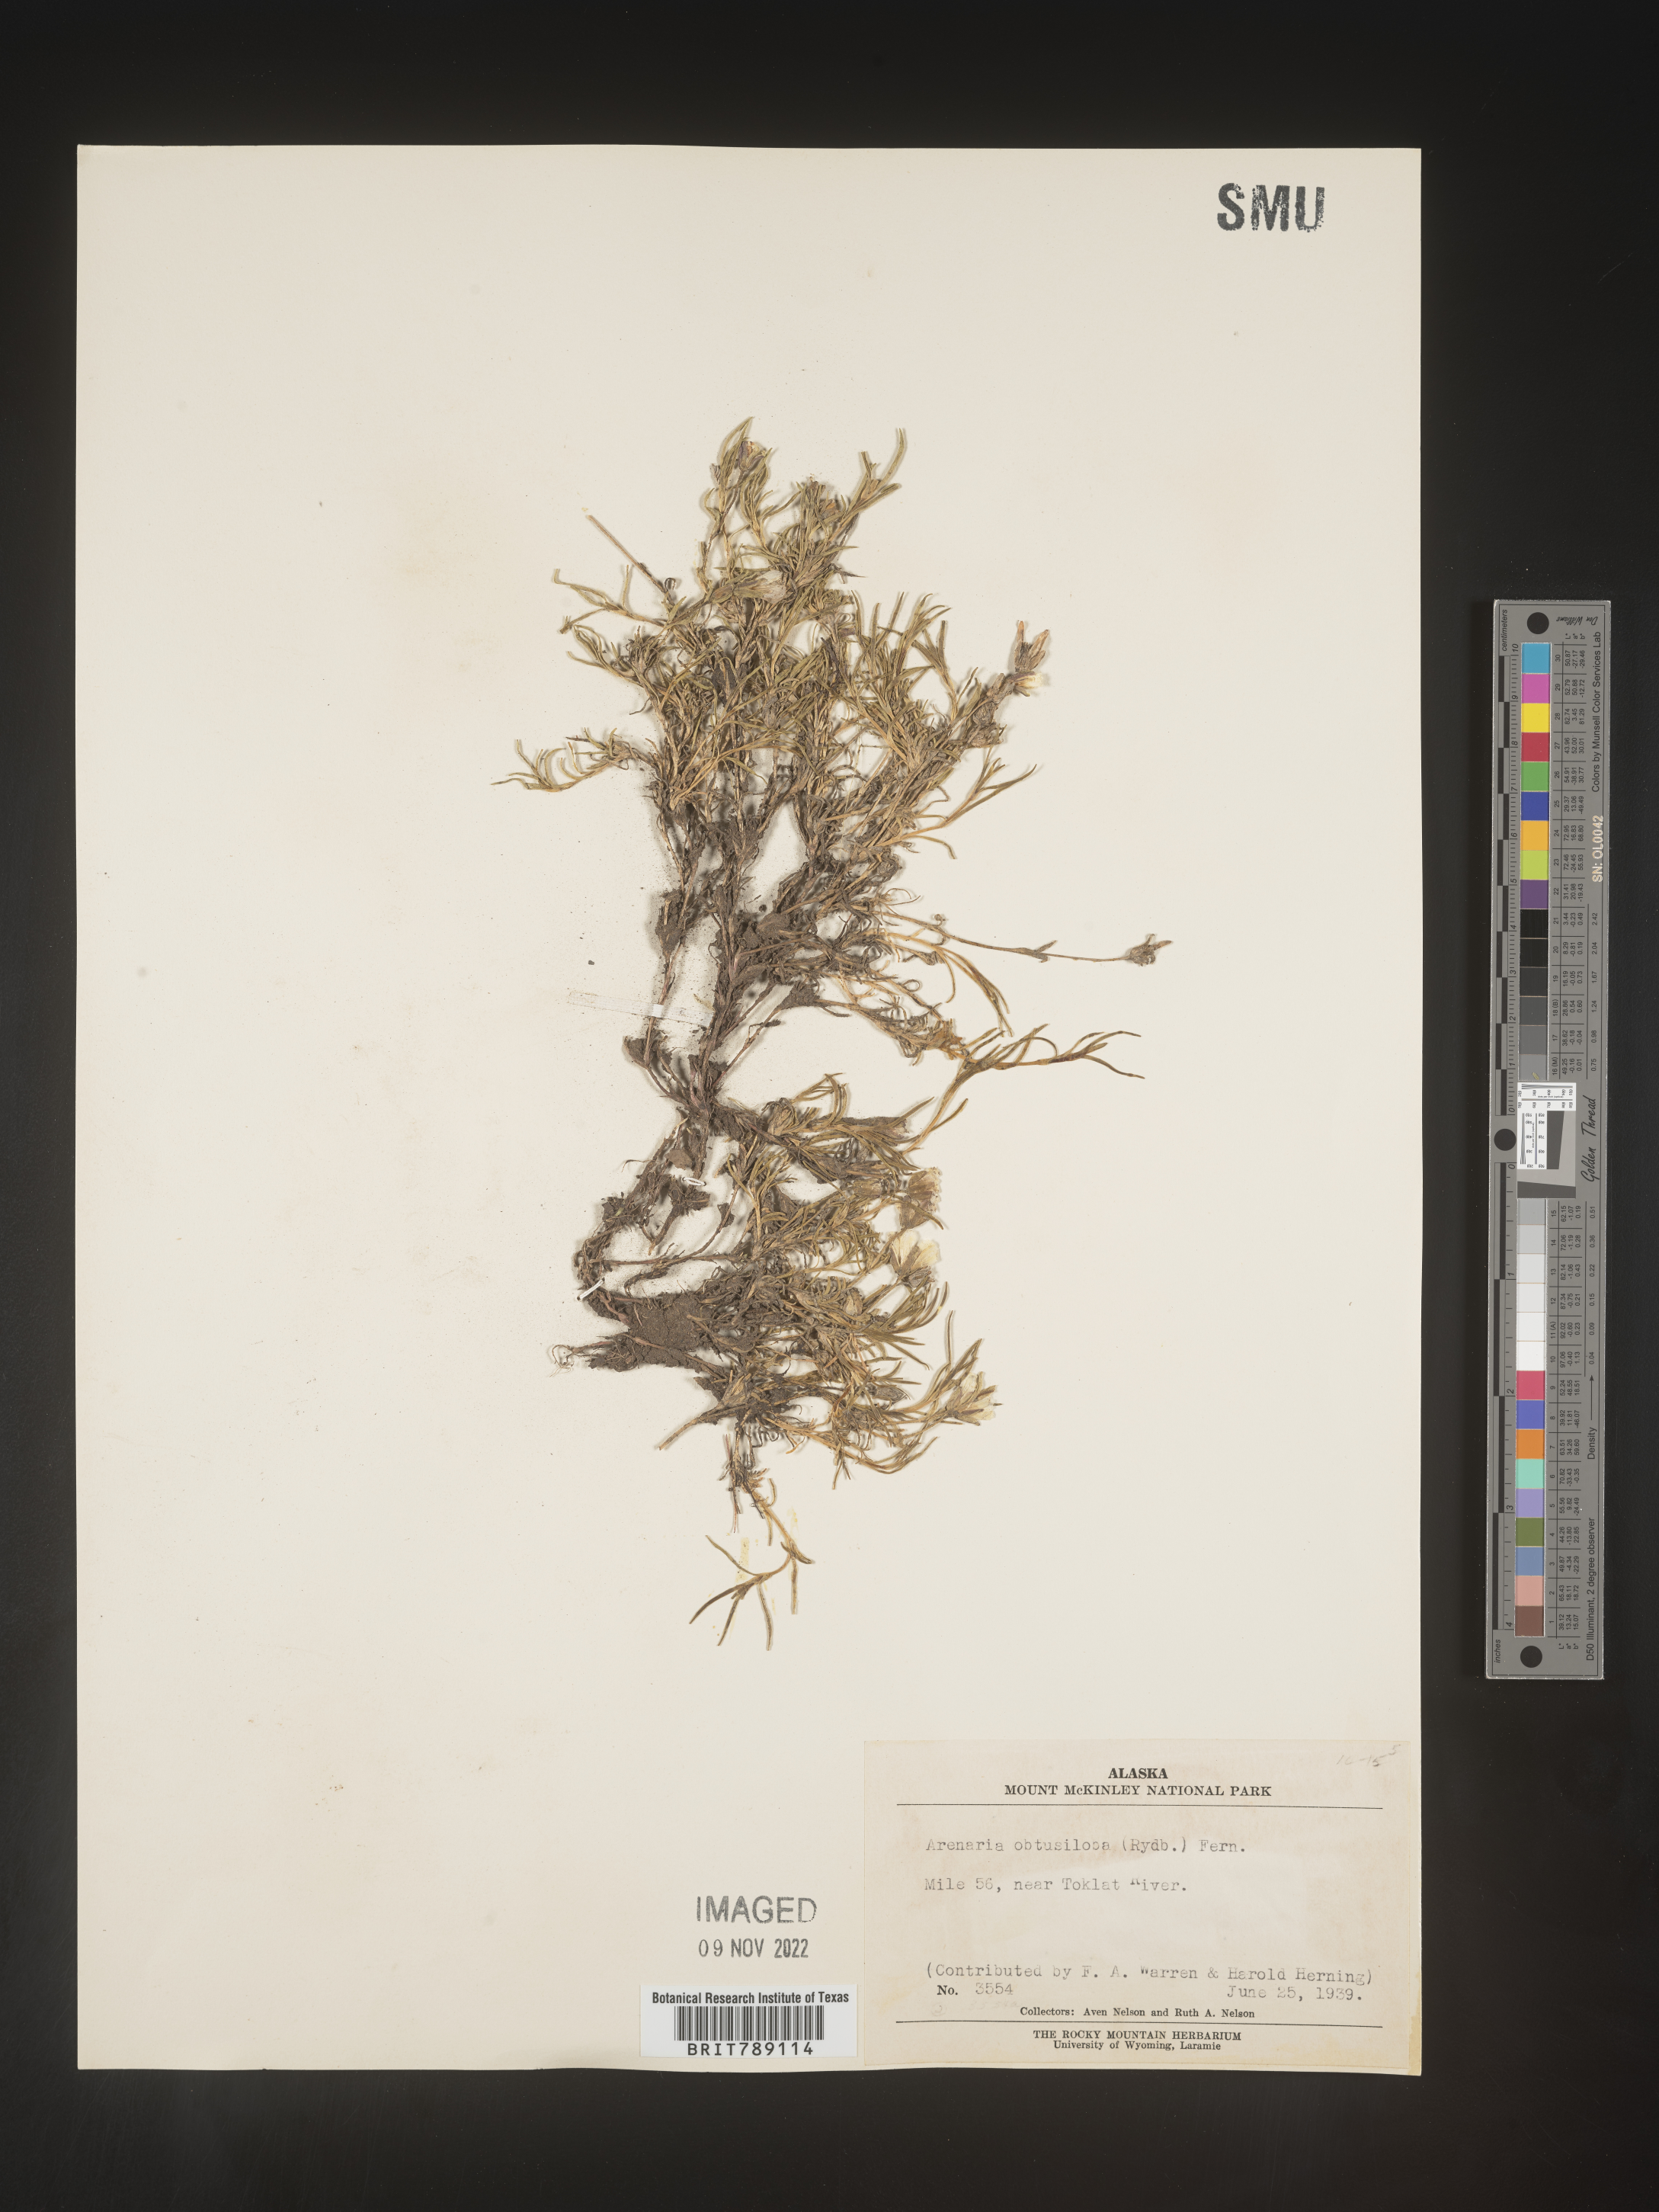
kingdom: Plantae
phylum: Tracheophyta
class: Magnoliopsida
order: Caryophyllales
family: Caryophyllaceae
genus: Arenaria
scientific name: Arenaria
